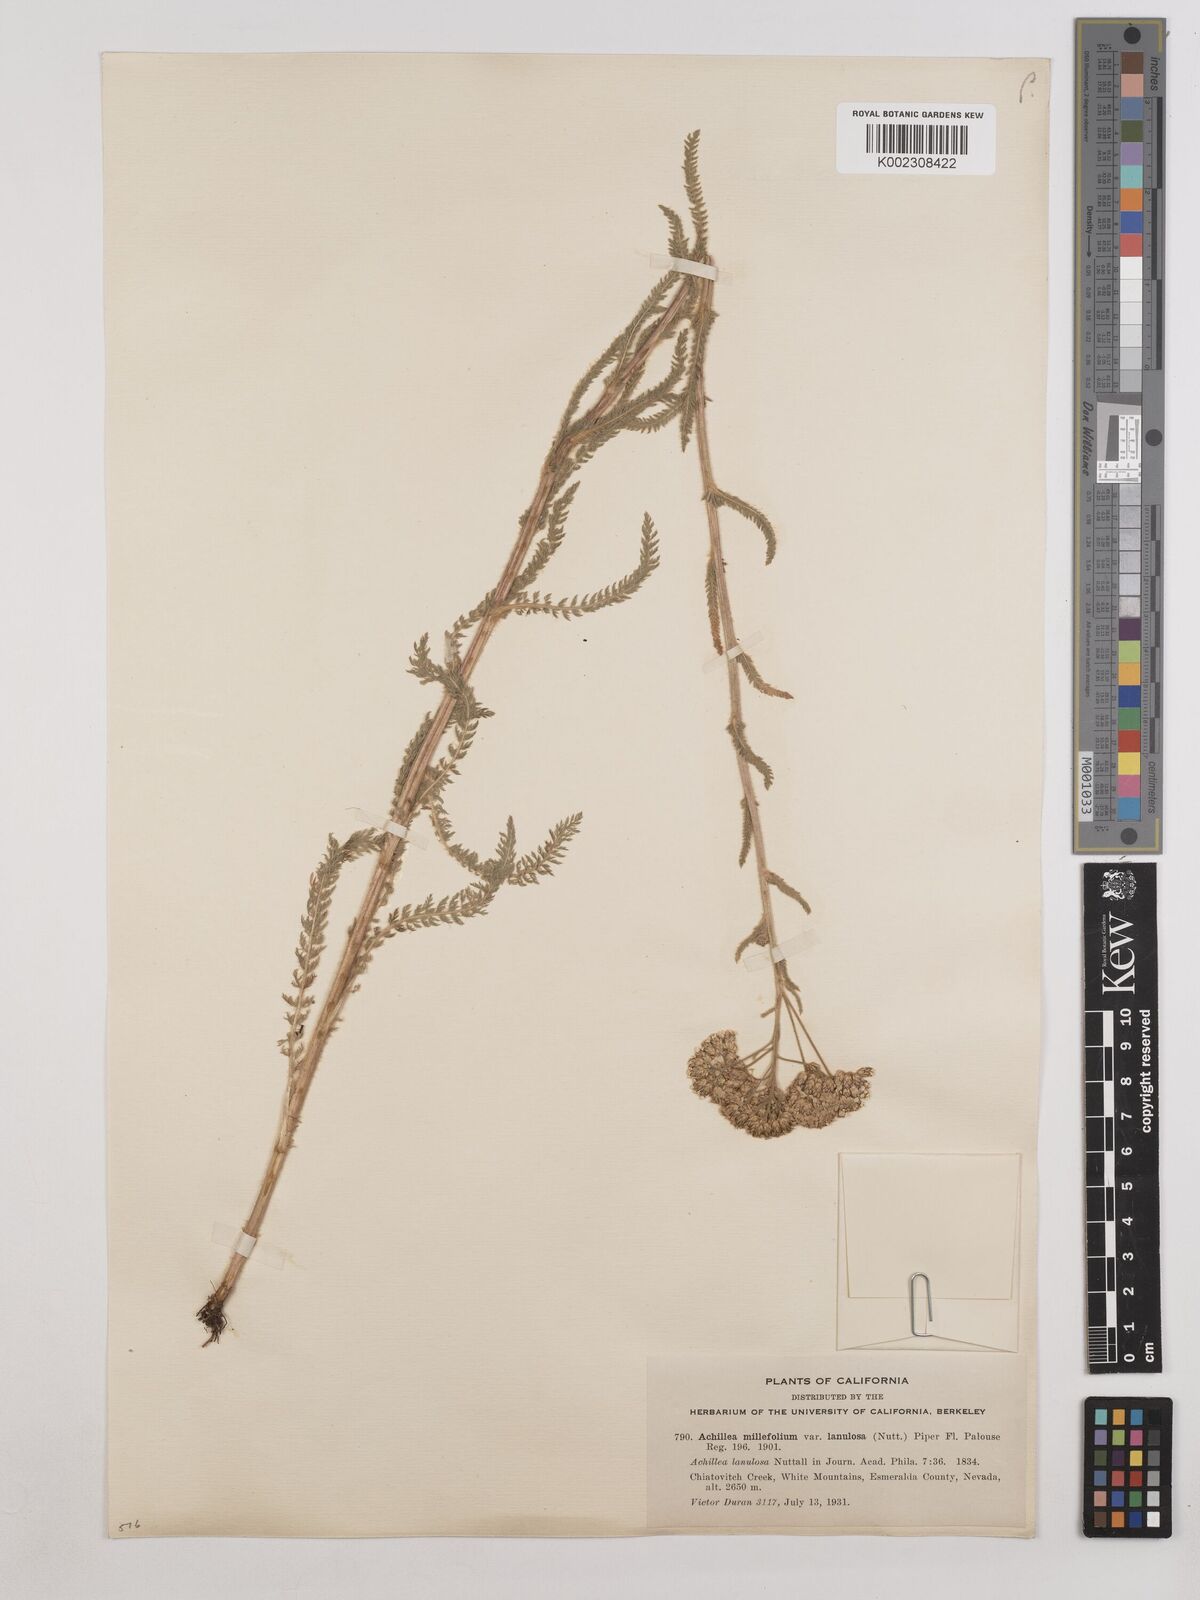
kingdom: Plantae
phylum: Tracheophyta
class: Magnoliopsida
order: Asterales
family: Asteraceae
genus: Achillea
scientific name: Achillea millefolium
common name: Yarrow
